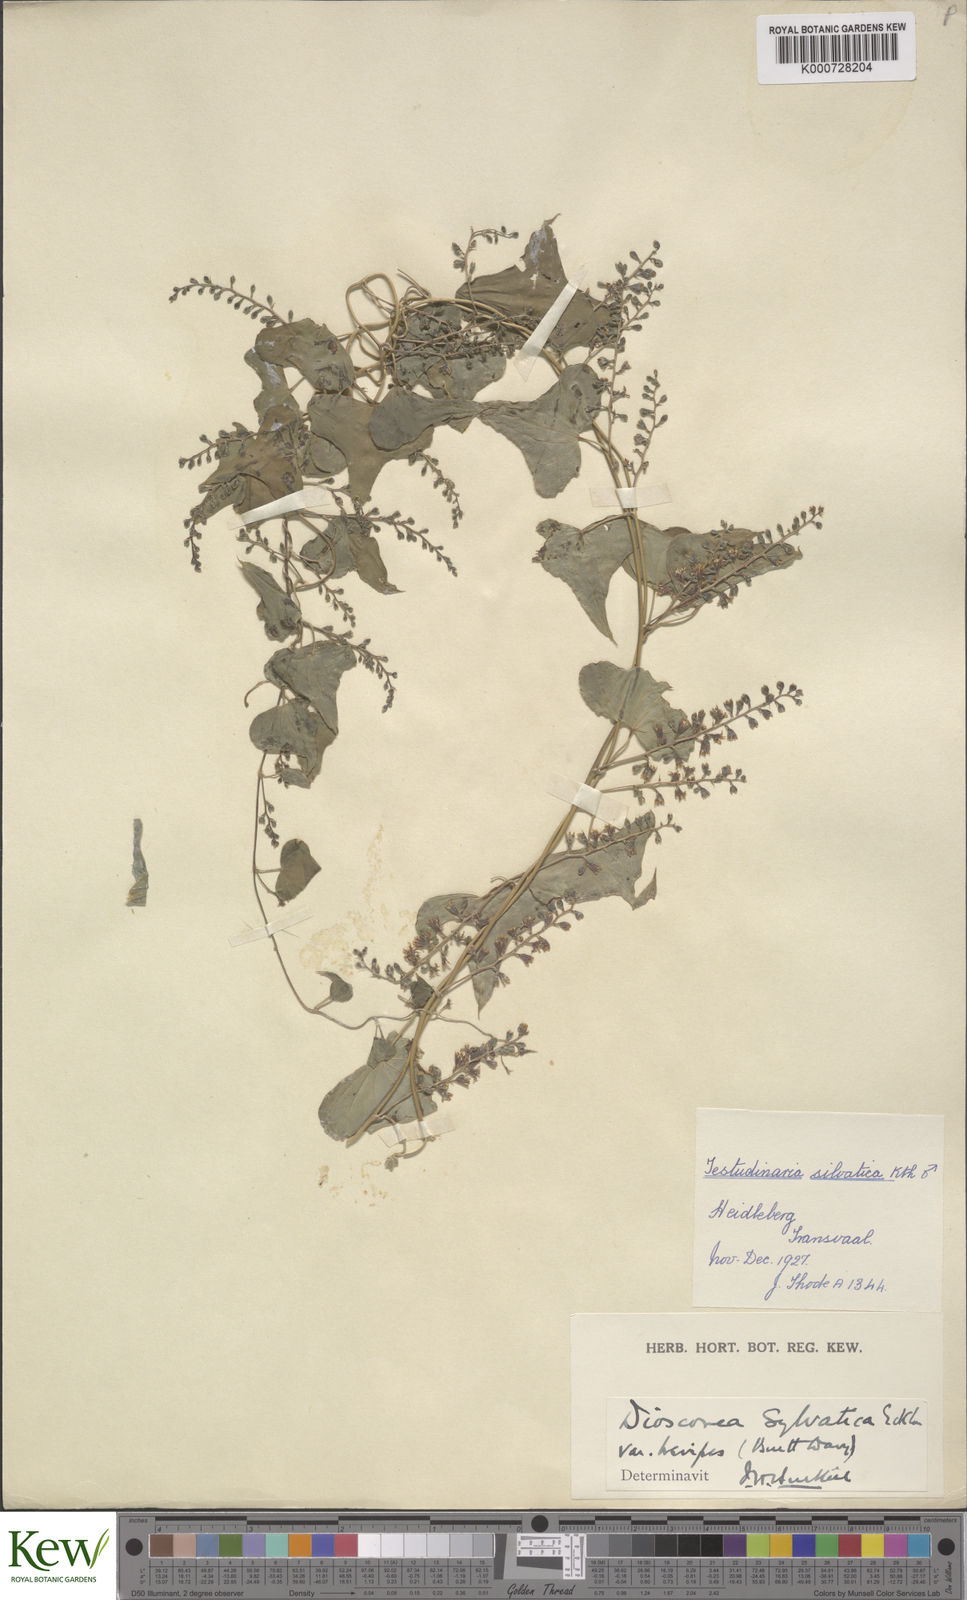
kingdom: Plantae
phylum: Tracheophyta
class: Liliopsida
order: Dioscoreales
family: Dioscoreaceae
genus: Dioscorea
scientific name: Dioscorea sylvatica
